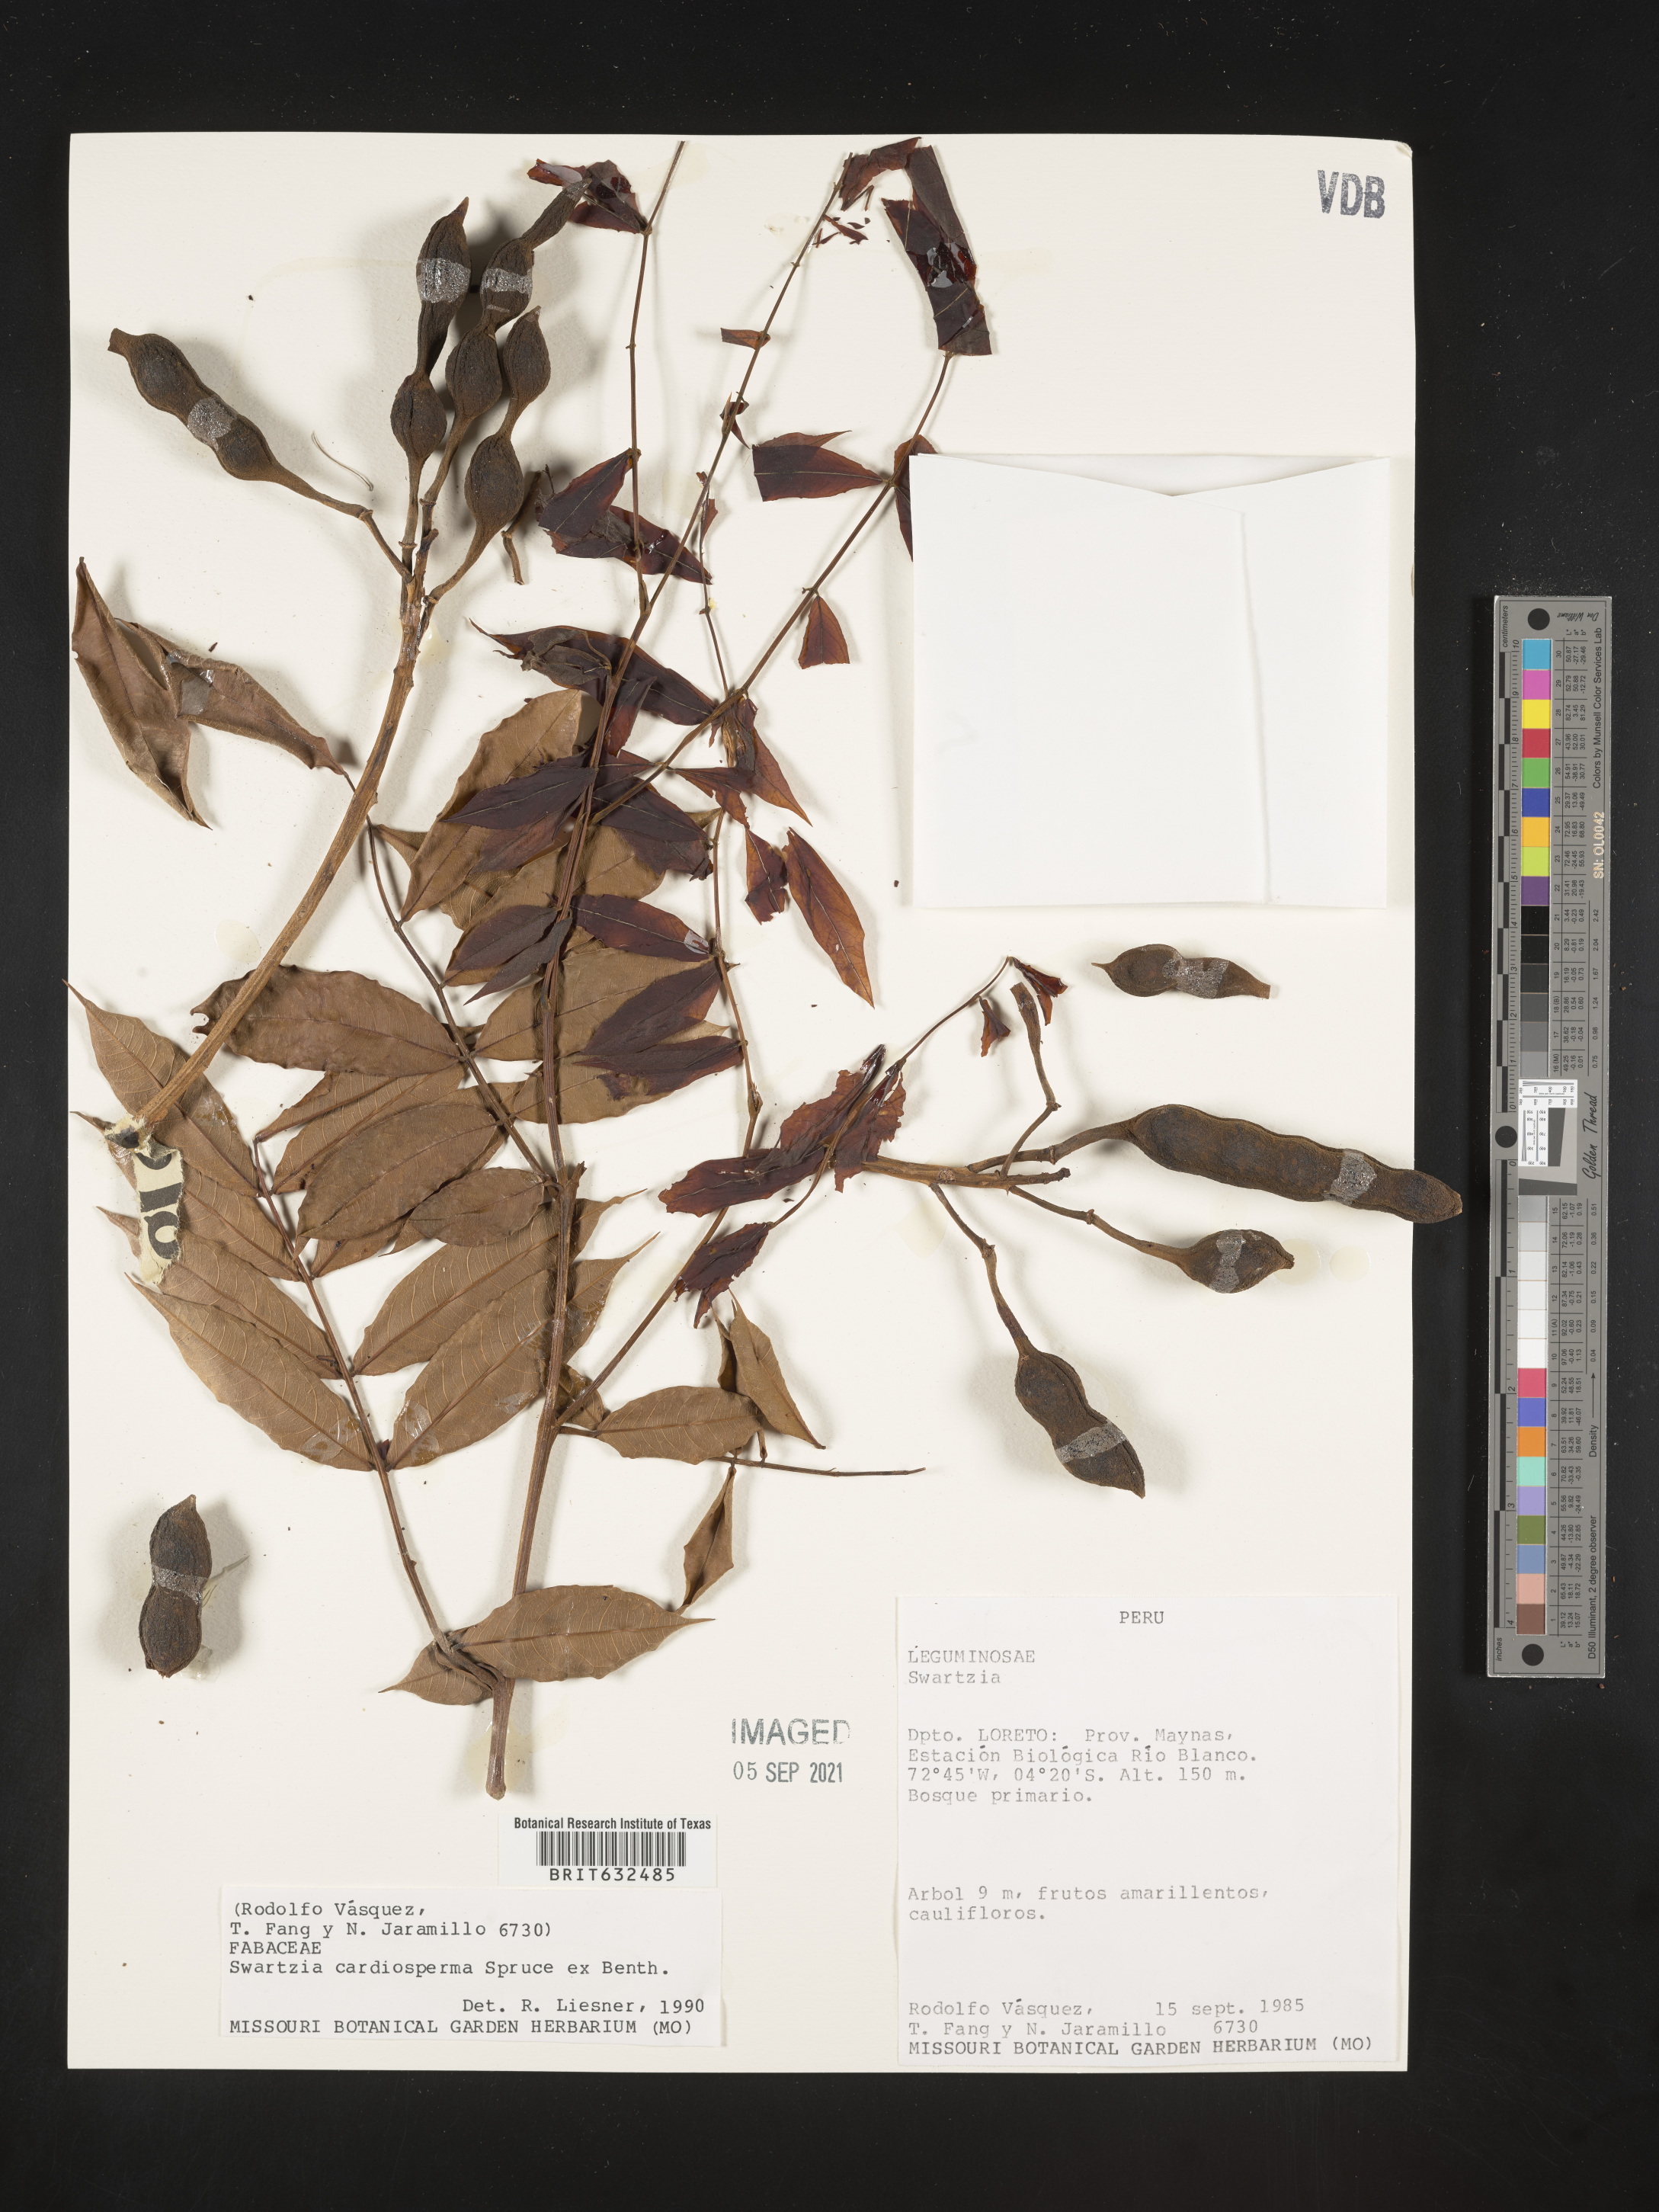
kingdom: Plantae
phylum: Tracheophyta
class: Magnoliopsida
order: Fabales
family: Fabaceae
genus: Swartzia
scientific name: Swartzia
